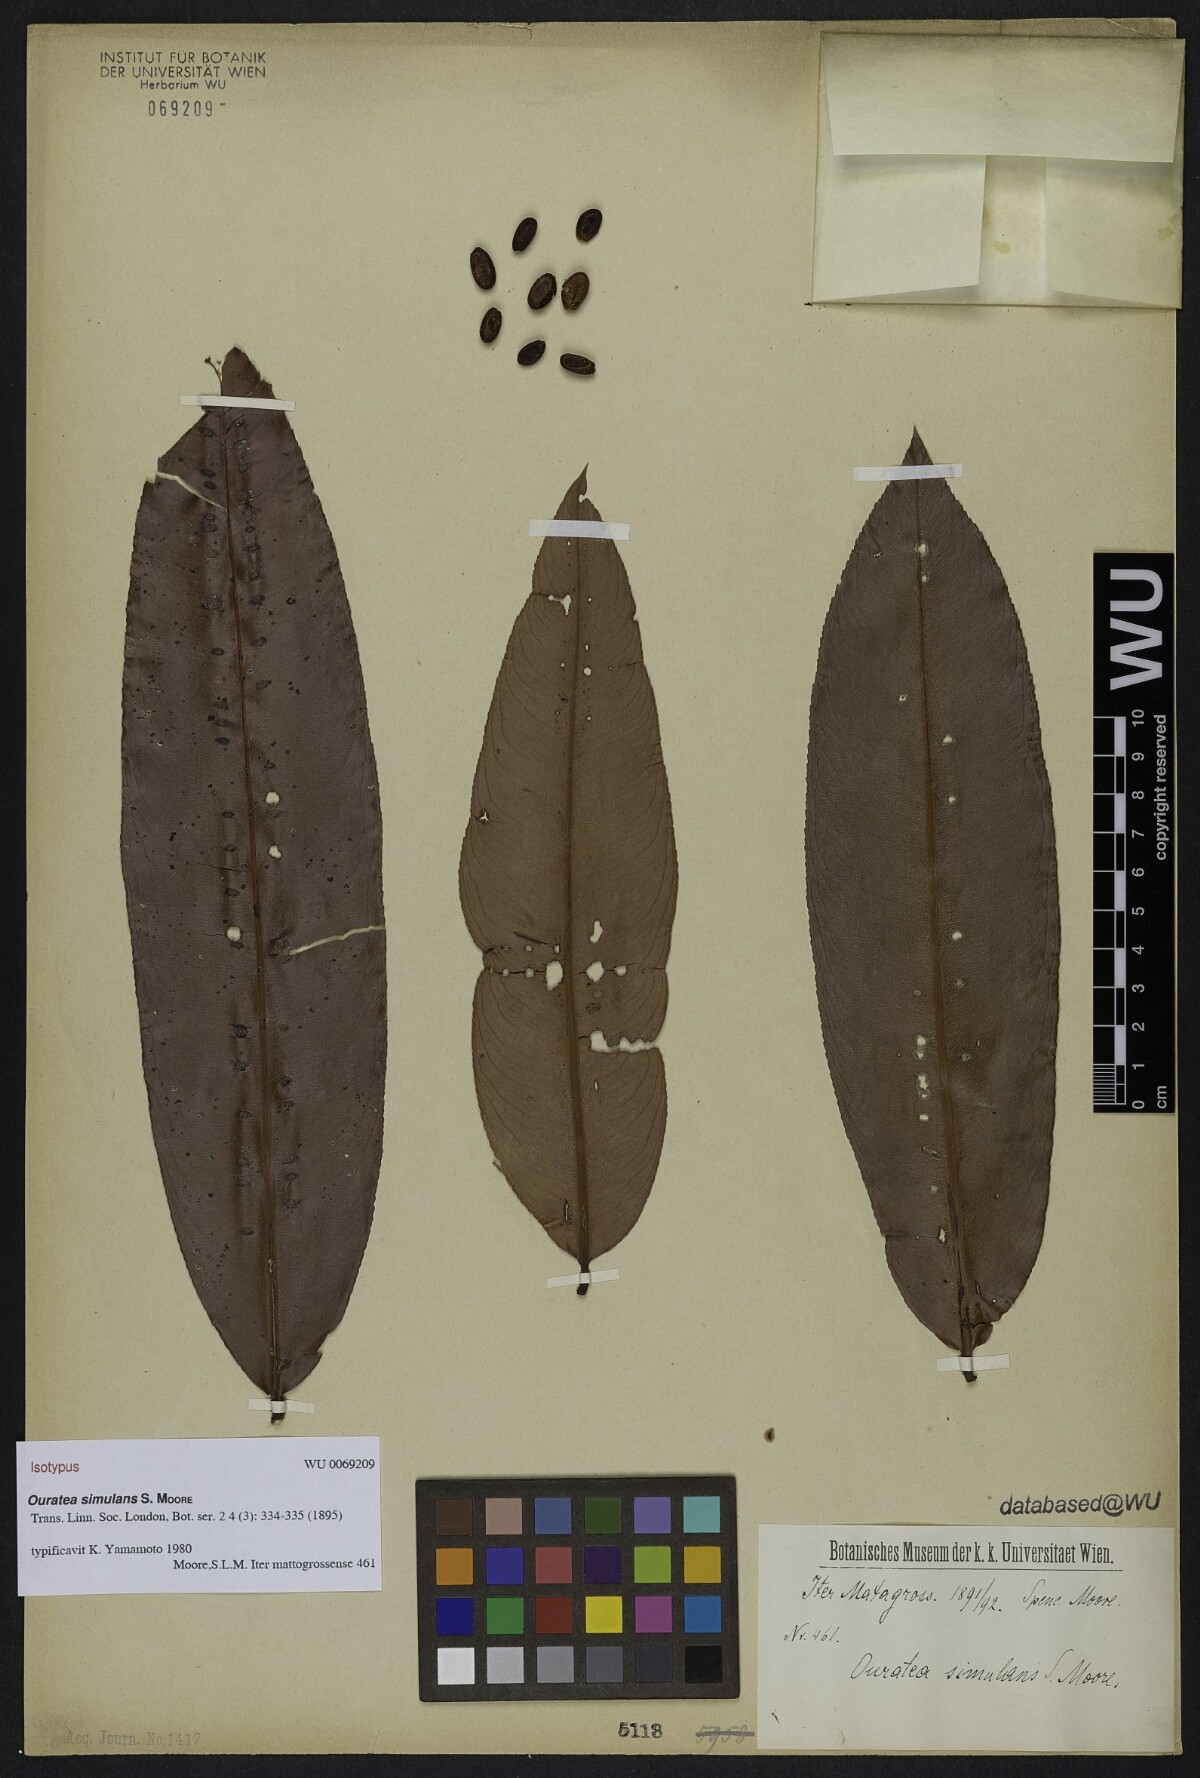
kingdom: Plantae
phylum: Tracheophyta
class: Magnoliopsida
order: Malpighiales
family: Ochnaceae
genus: Ouratea
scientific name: Ouratea simulans
